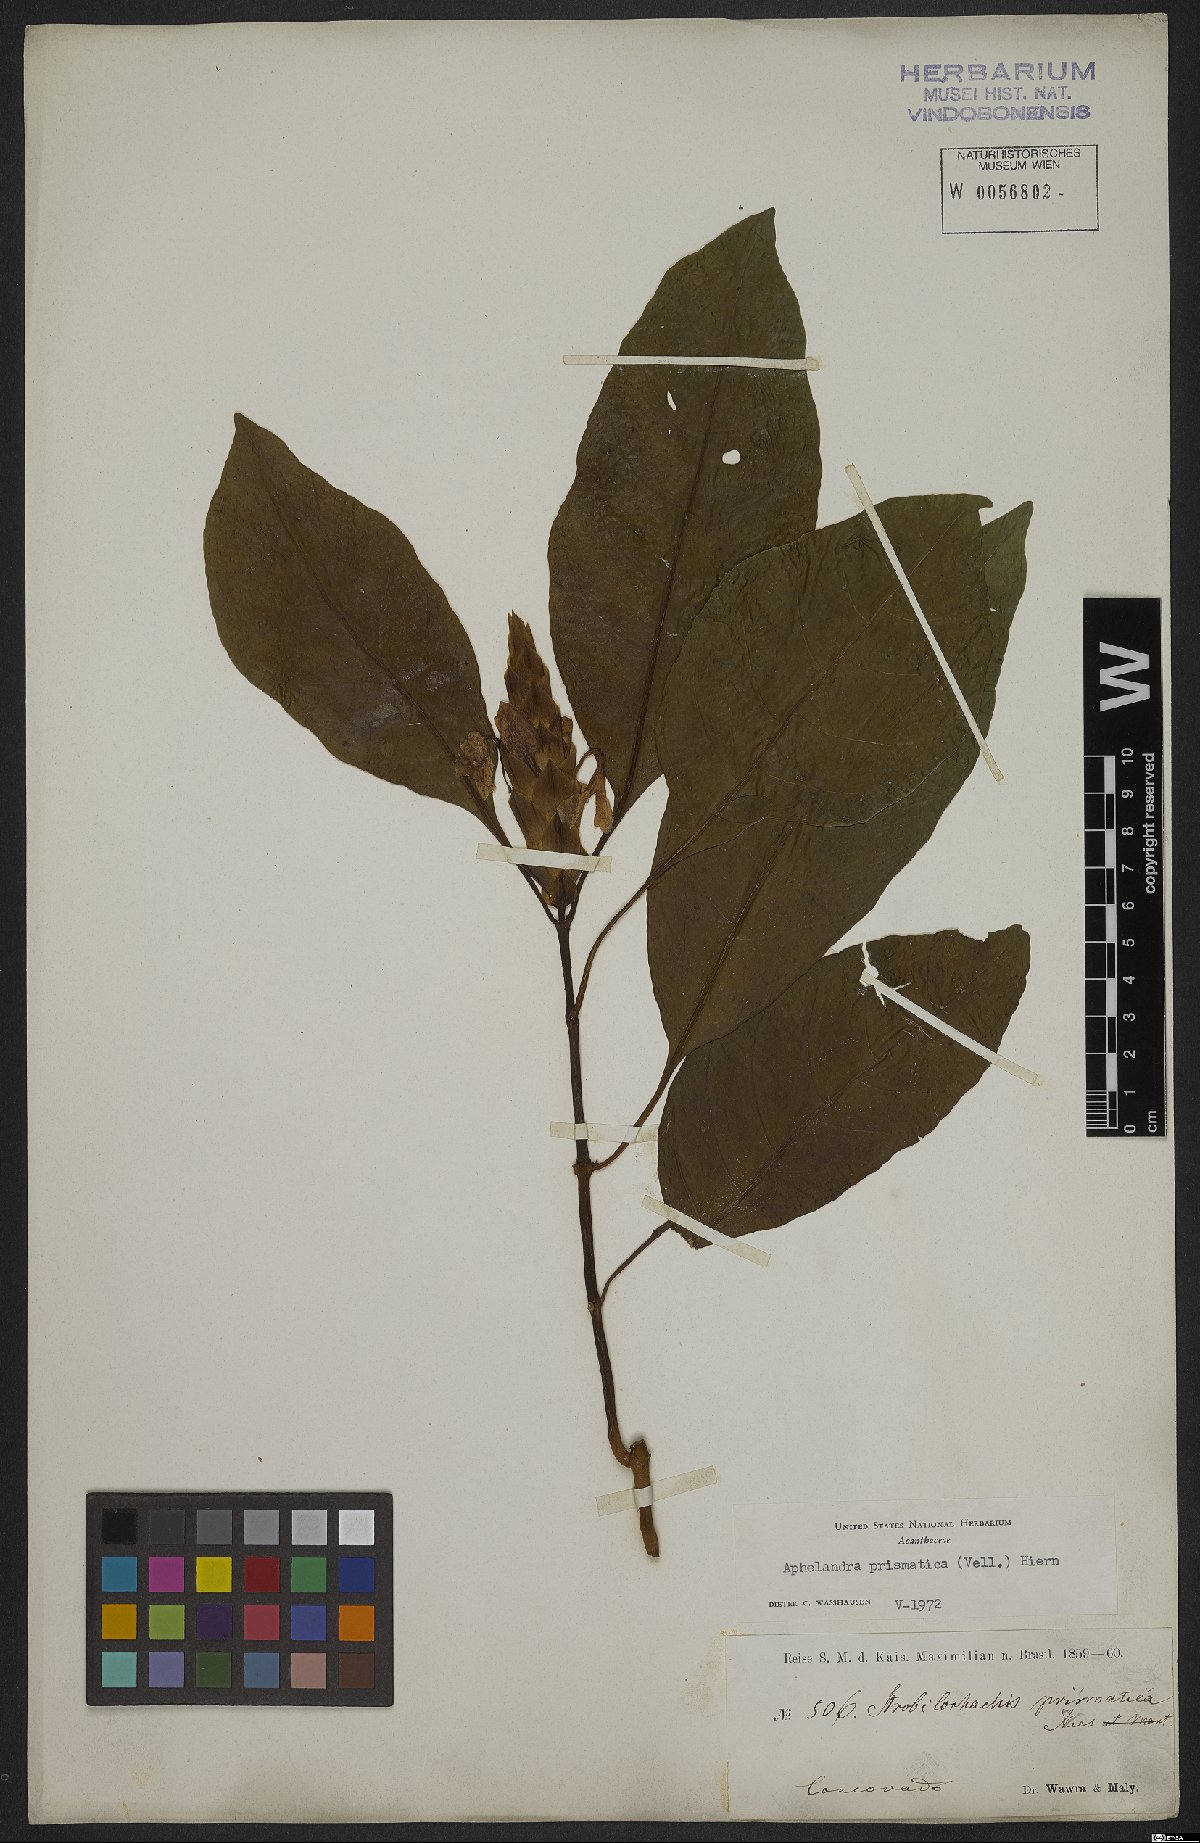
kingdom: Plantae
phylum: Tracheophyta
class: Magnoliopsida
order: Lamiales
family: Acanthaceae
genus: Aphelandra
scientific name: Aphelandra prismatica
